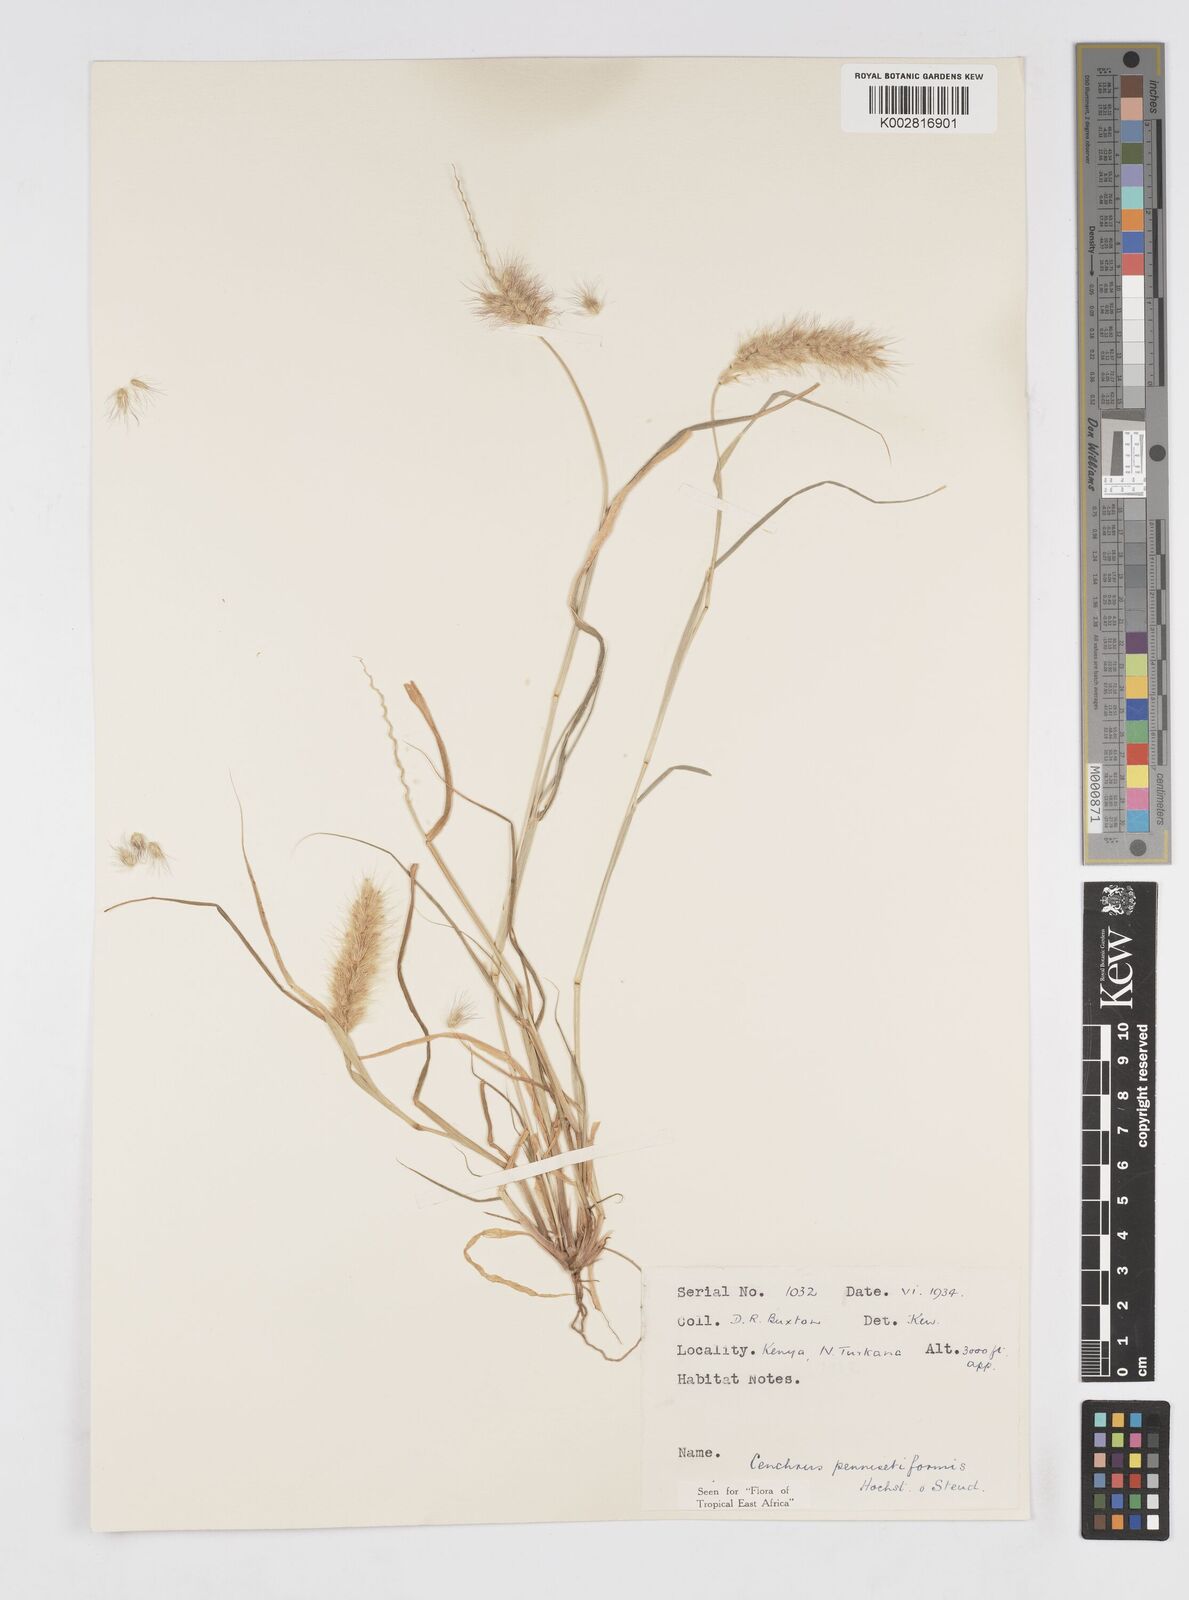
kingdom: Plantae
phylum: Tracheophyta
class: Liliopsida
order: Poales
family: Poaceae
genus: Cenchrus
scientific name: Cenchrus pennisetiformis
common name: Cloncurry
